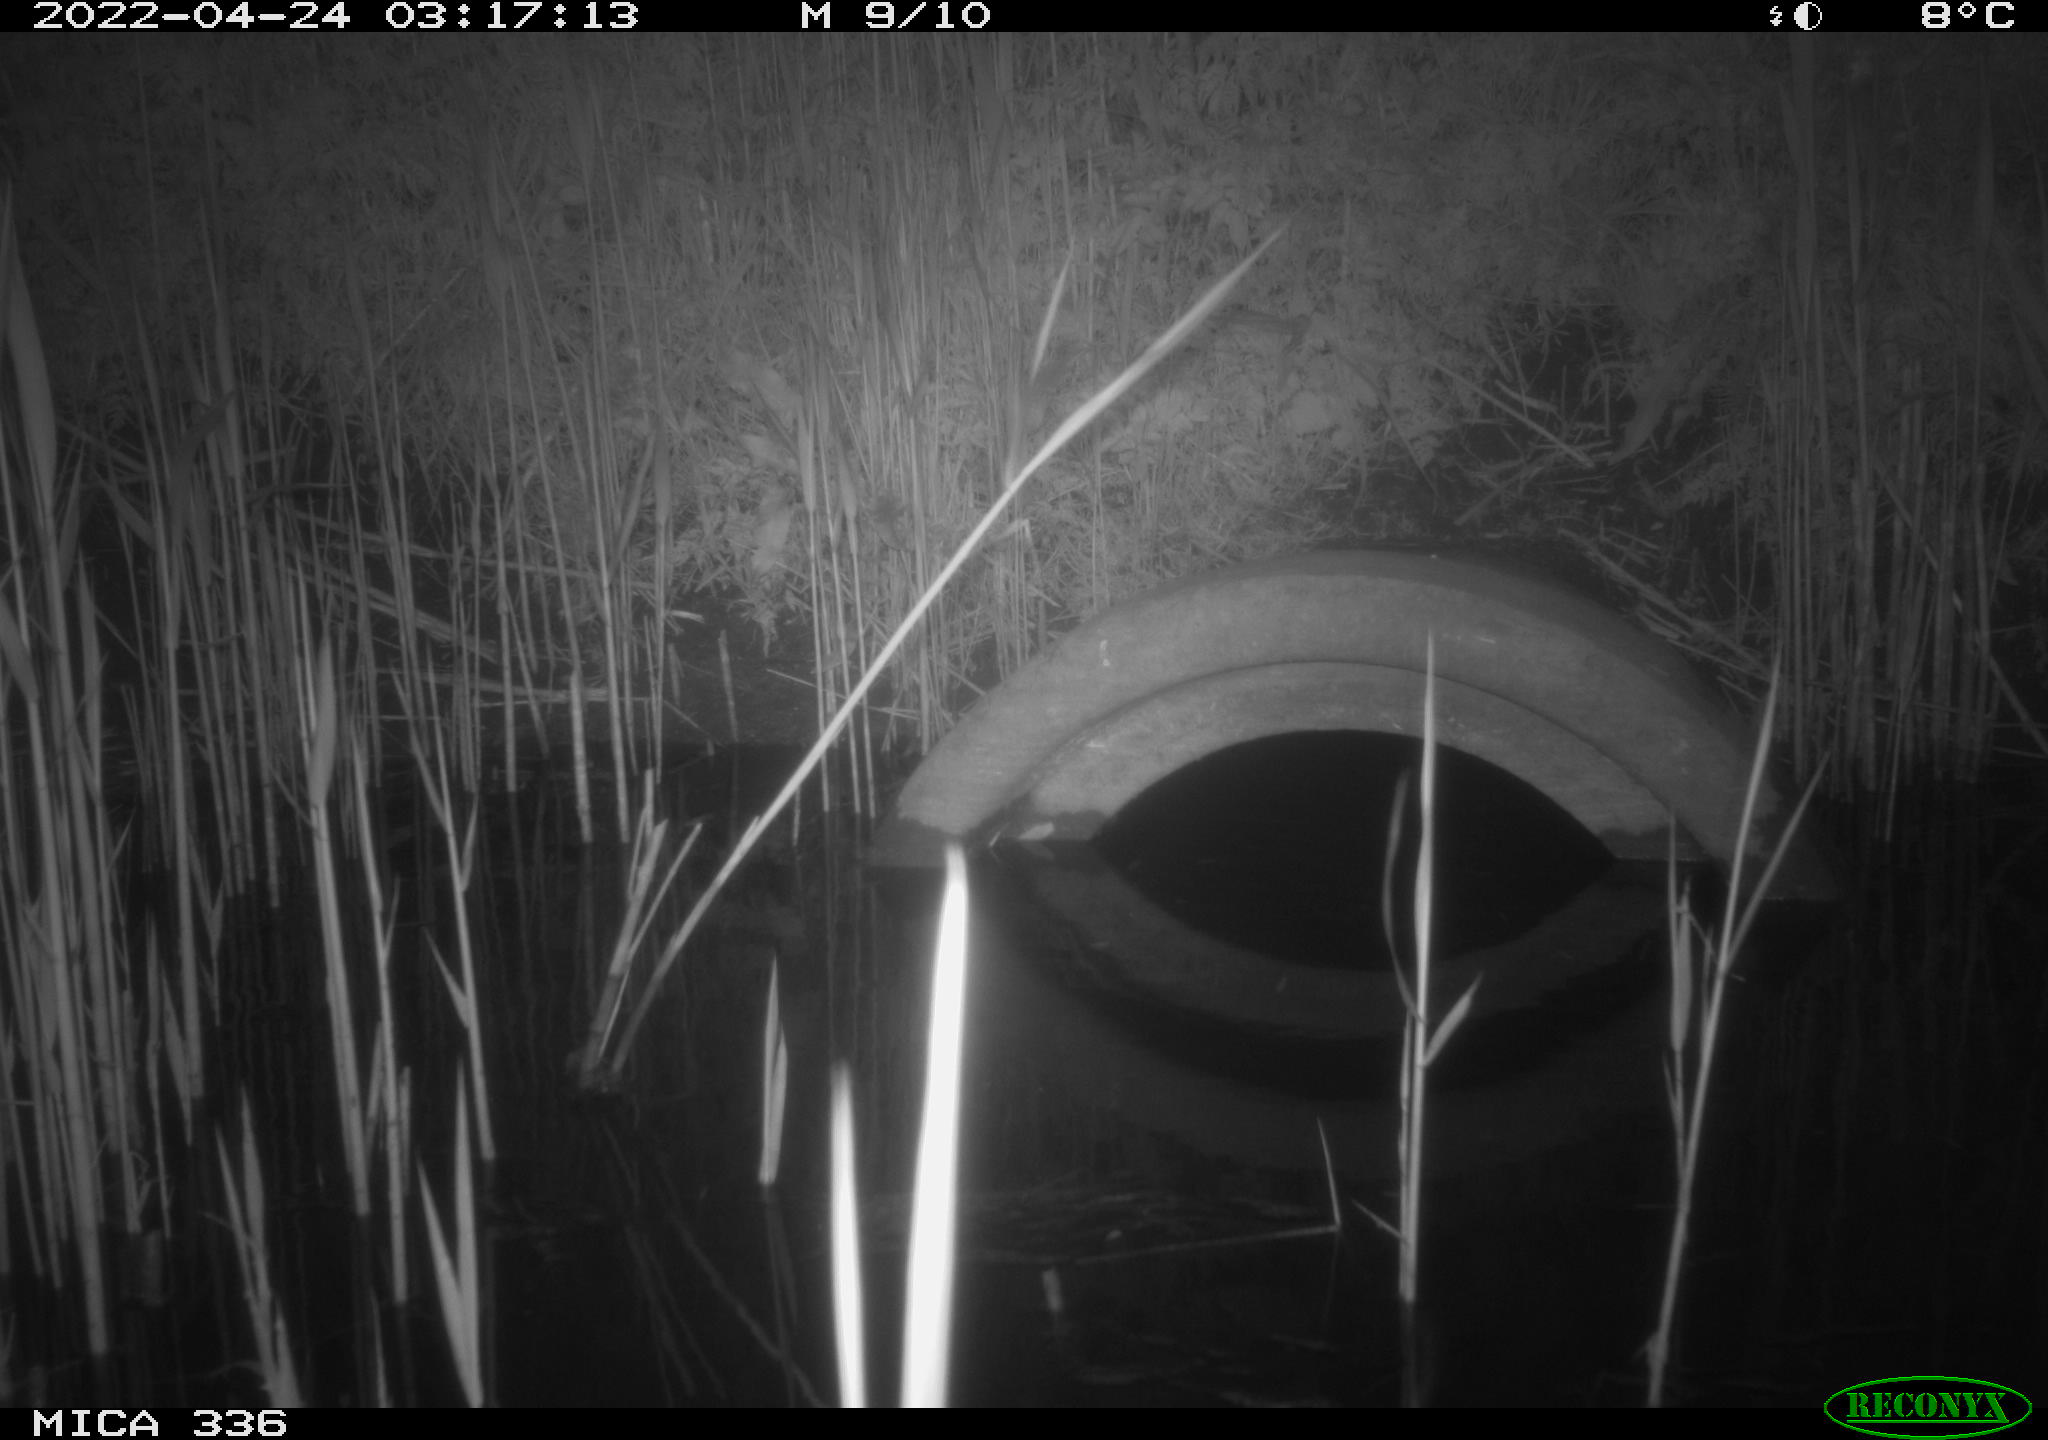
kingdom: Animalia
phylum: Chordata
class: Mammalia
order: Rodentia
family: Muridae
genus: Rattus
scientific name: Rattus norvegicus
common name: Brown rat
